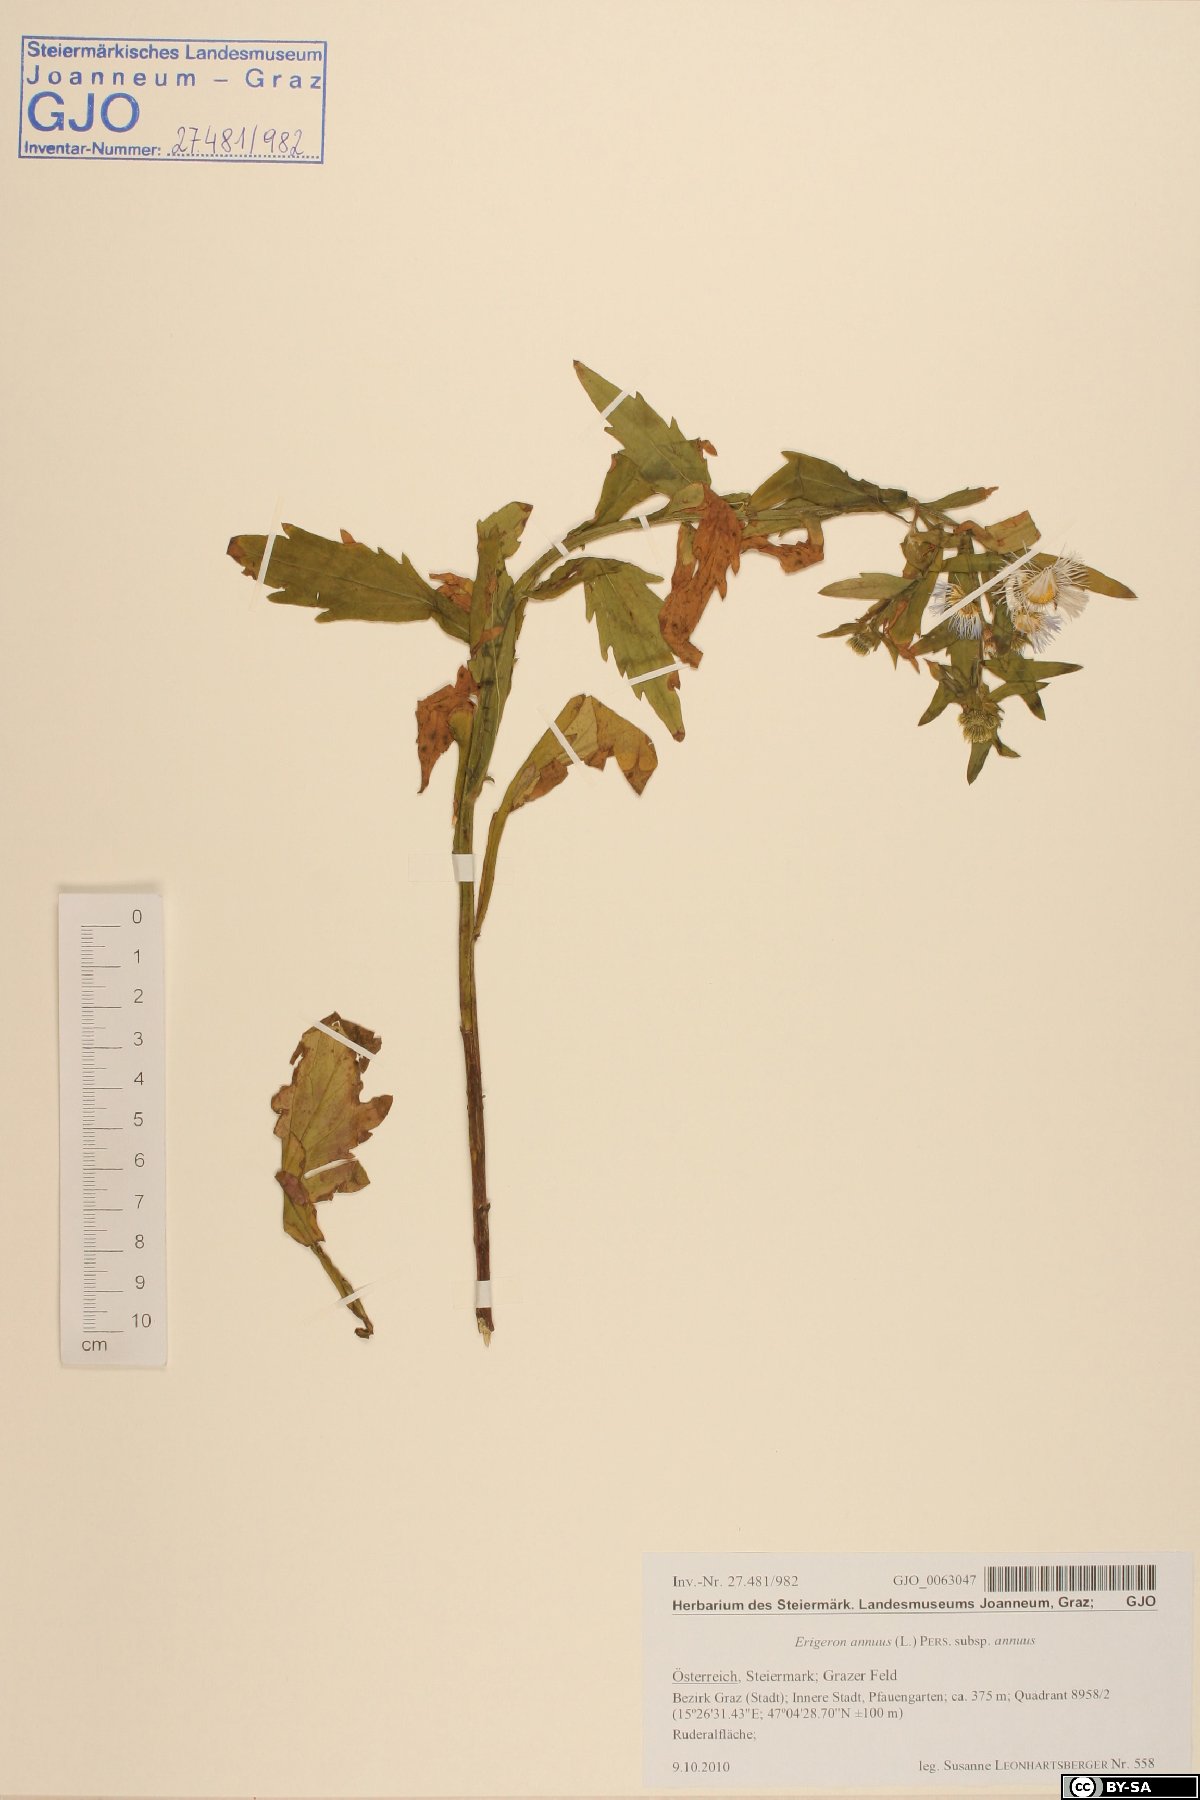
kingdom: Plantae
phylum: Tracheophyta
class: Magnoliopsida
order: Asterales
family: Asteraceae
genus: Erigeron
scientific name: Erigeron annuus
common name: Tall fleabane
